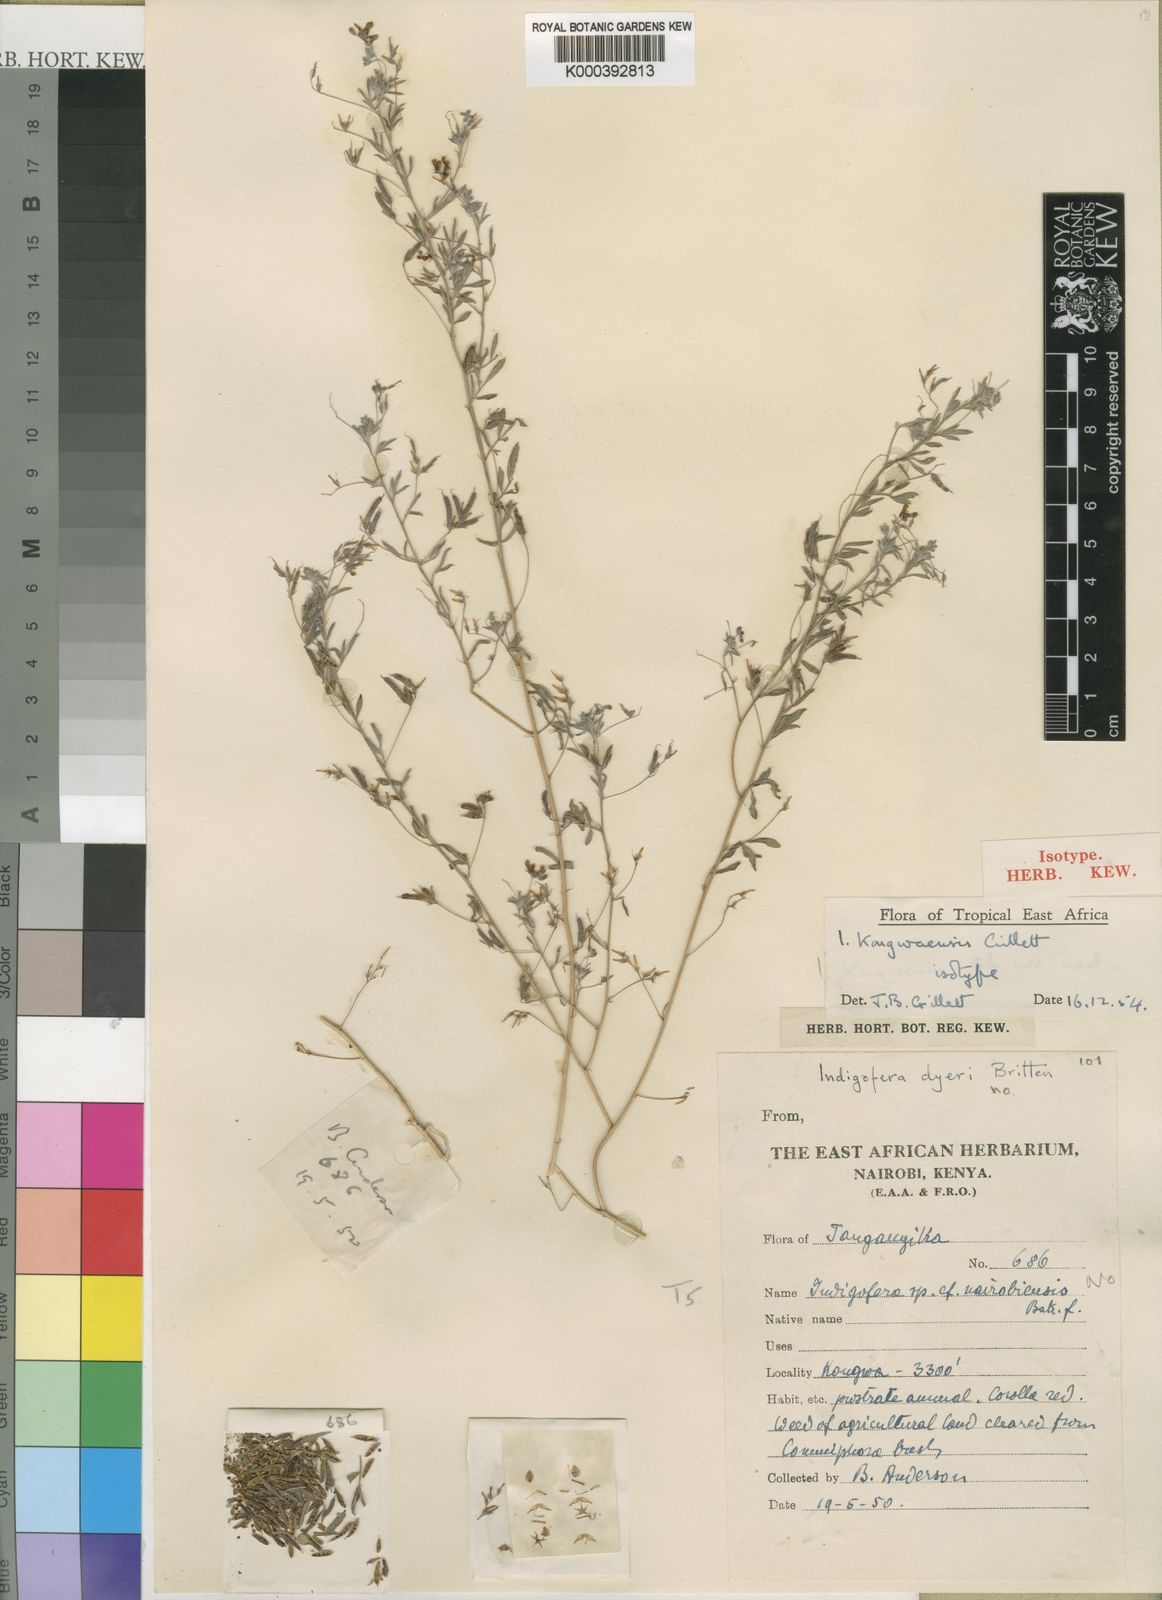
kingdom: Plantae
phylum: Tracheophyta
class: Magnoliopsida
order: Fabales
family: Fabaceae
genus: Indigofera
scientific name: Indigofera kongwaensis
